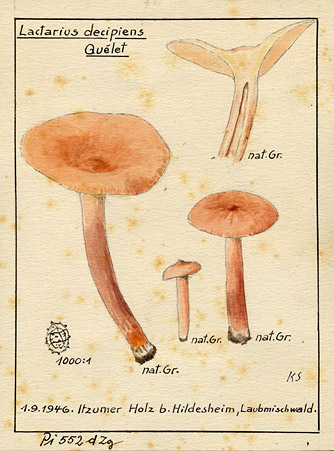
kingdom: Fungi
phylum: Basidiomycota
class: Agaricomycetes
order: Russulales
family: Russulaceae
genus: Lactarius
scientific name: Lactarius decipiens
